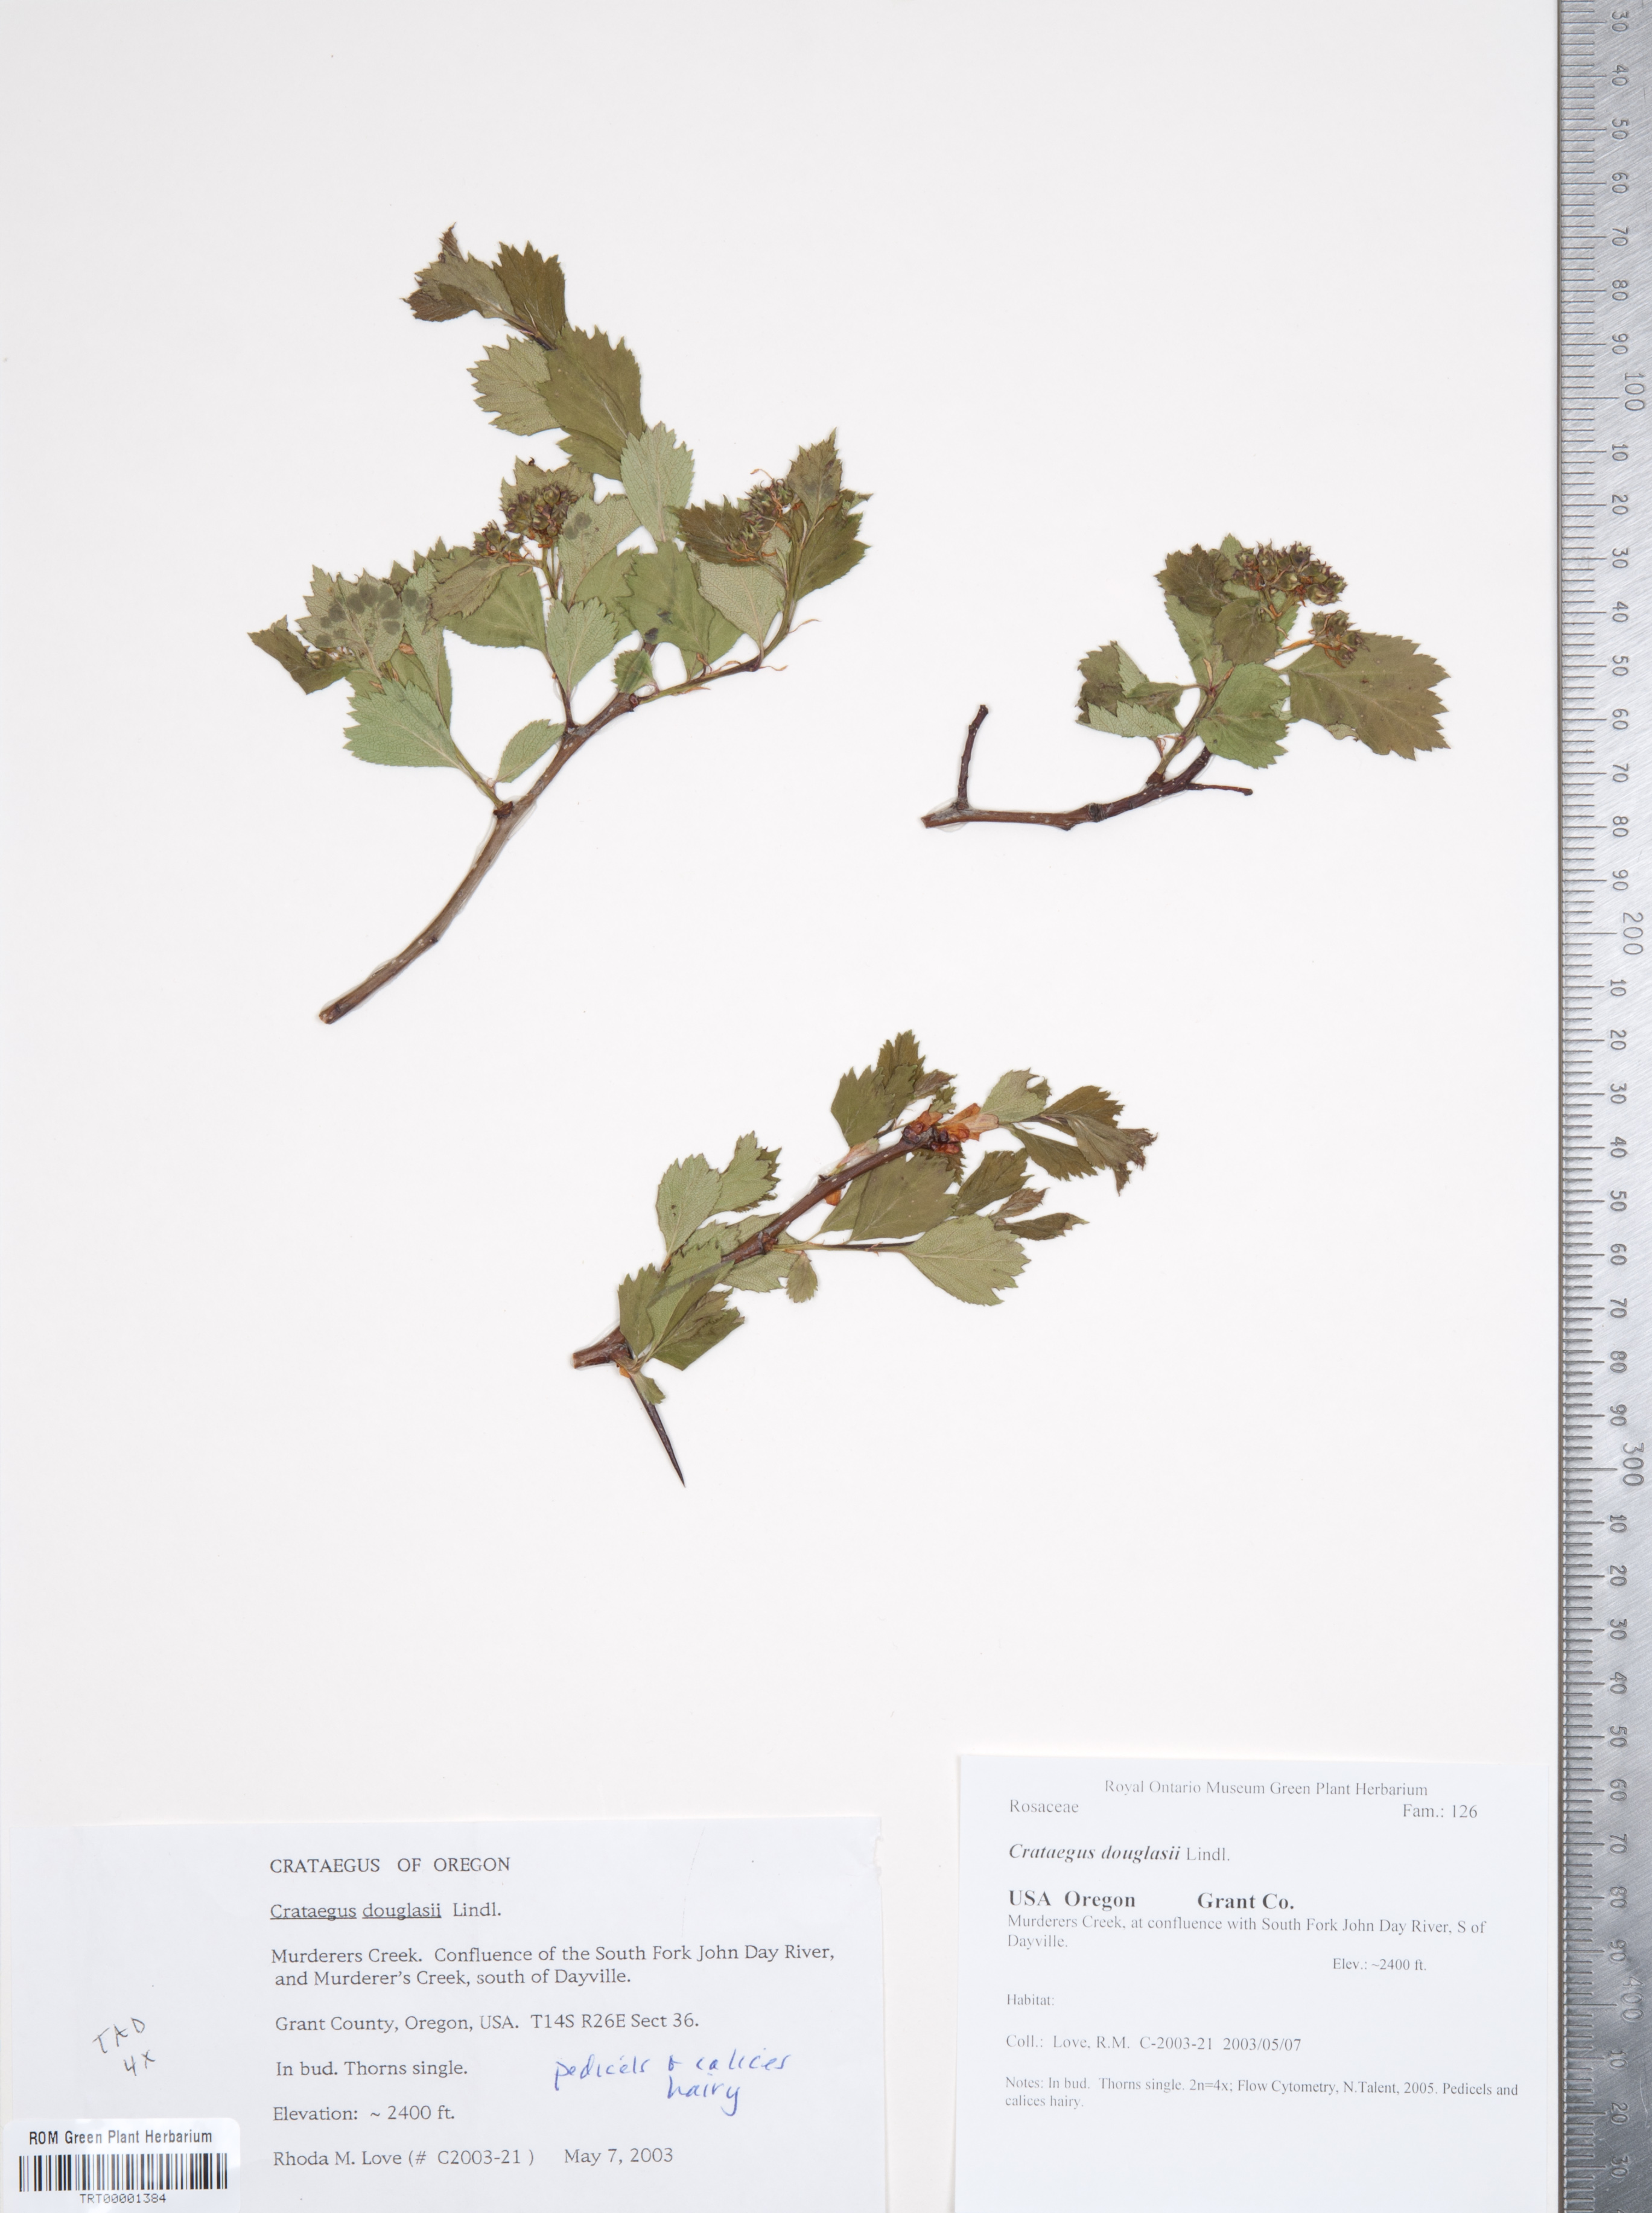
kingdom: Plantae
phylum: Tracheophyta
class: Magnoliopsida
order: Rosales
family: Rosaceae
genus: Crataegus
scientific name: Crataegus douglasii
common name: Black hawthorn
